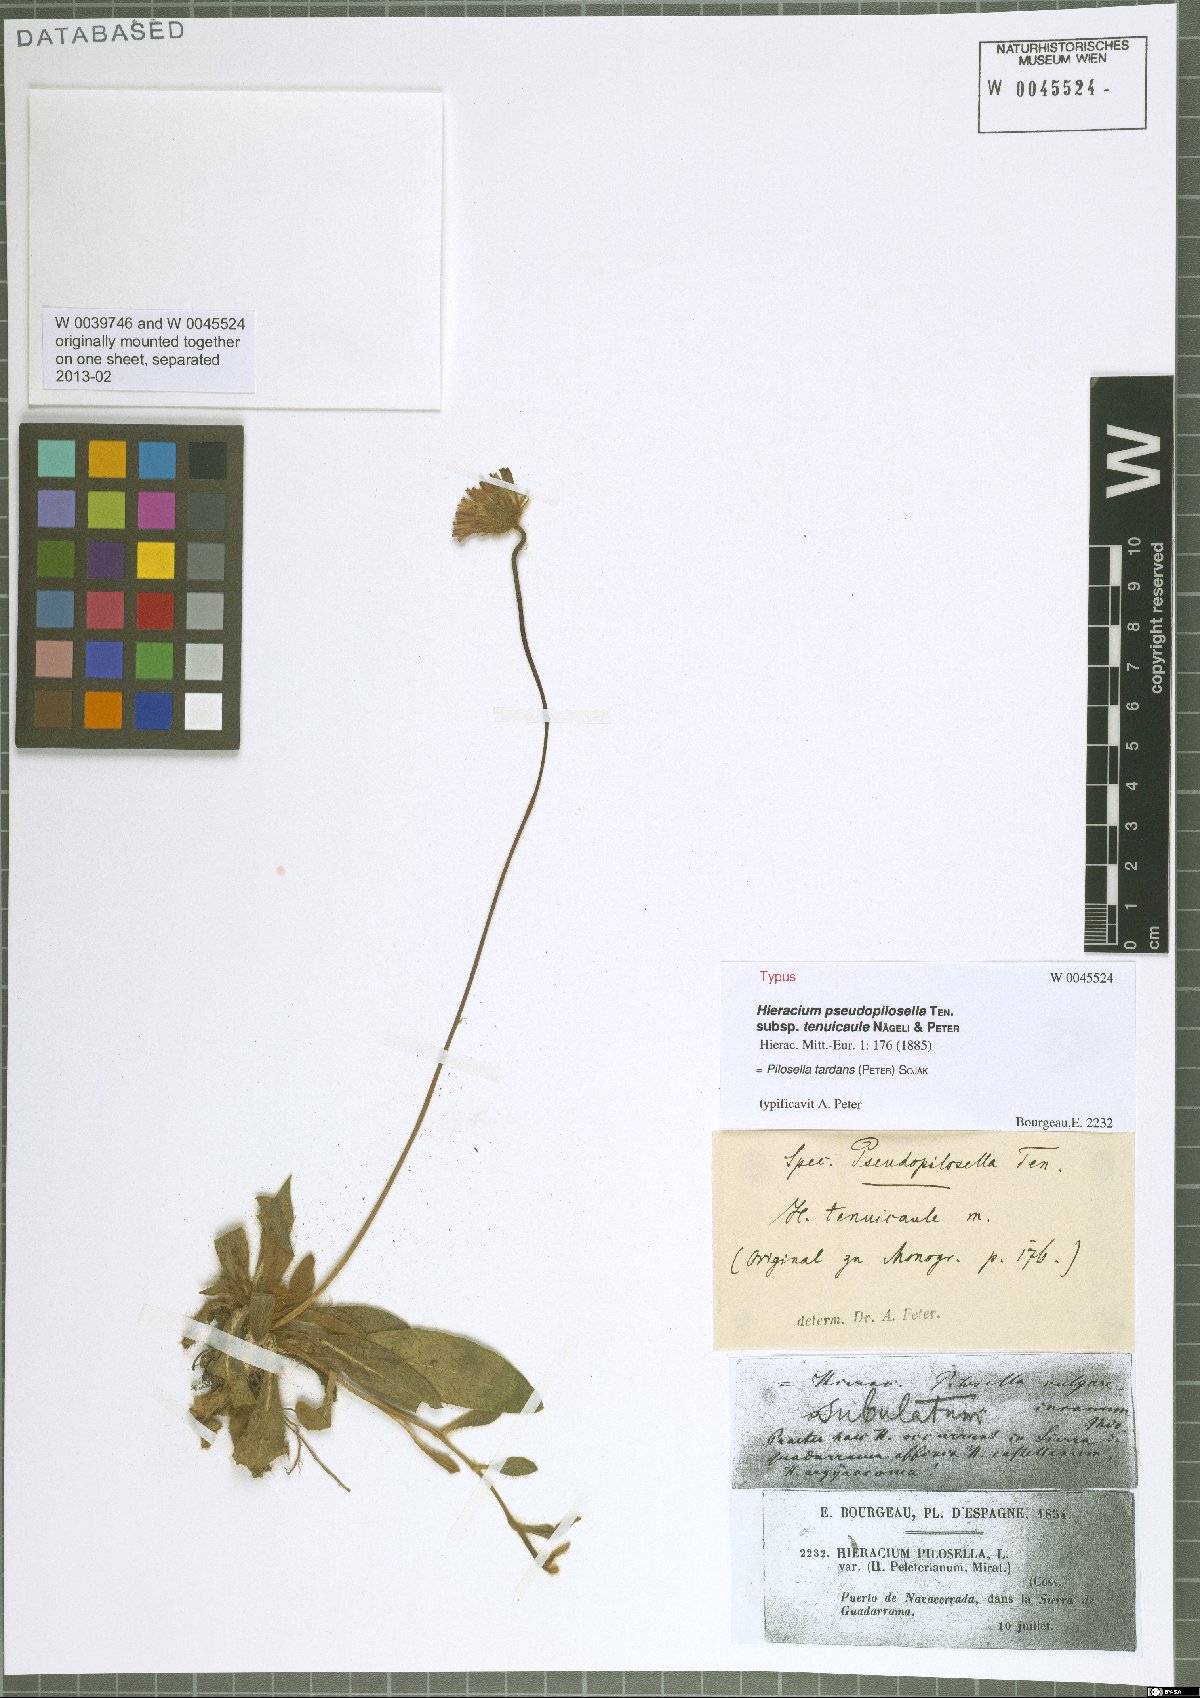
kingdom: Plantae
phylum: Tracheophyta
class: Magnoliopsida
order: Asterales
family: Asteraceae
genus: Pilosella
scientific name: Pilosella tardans
